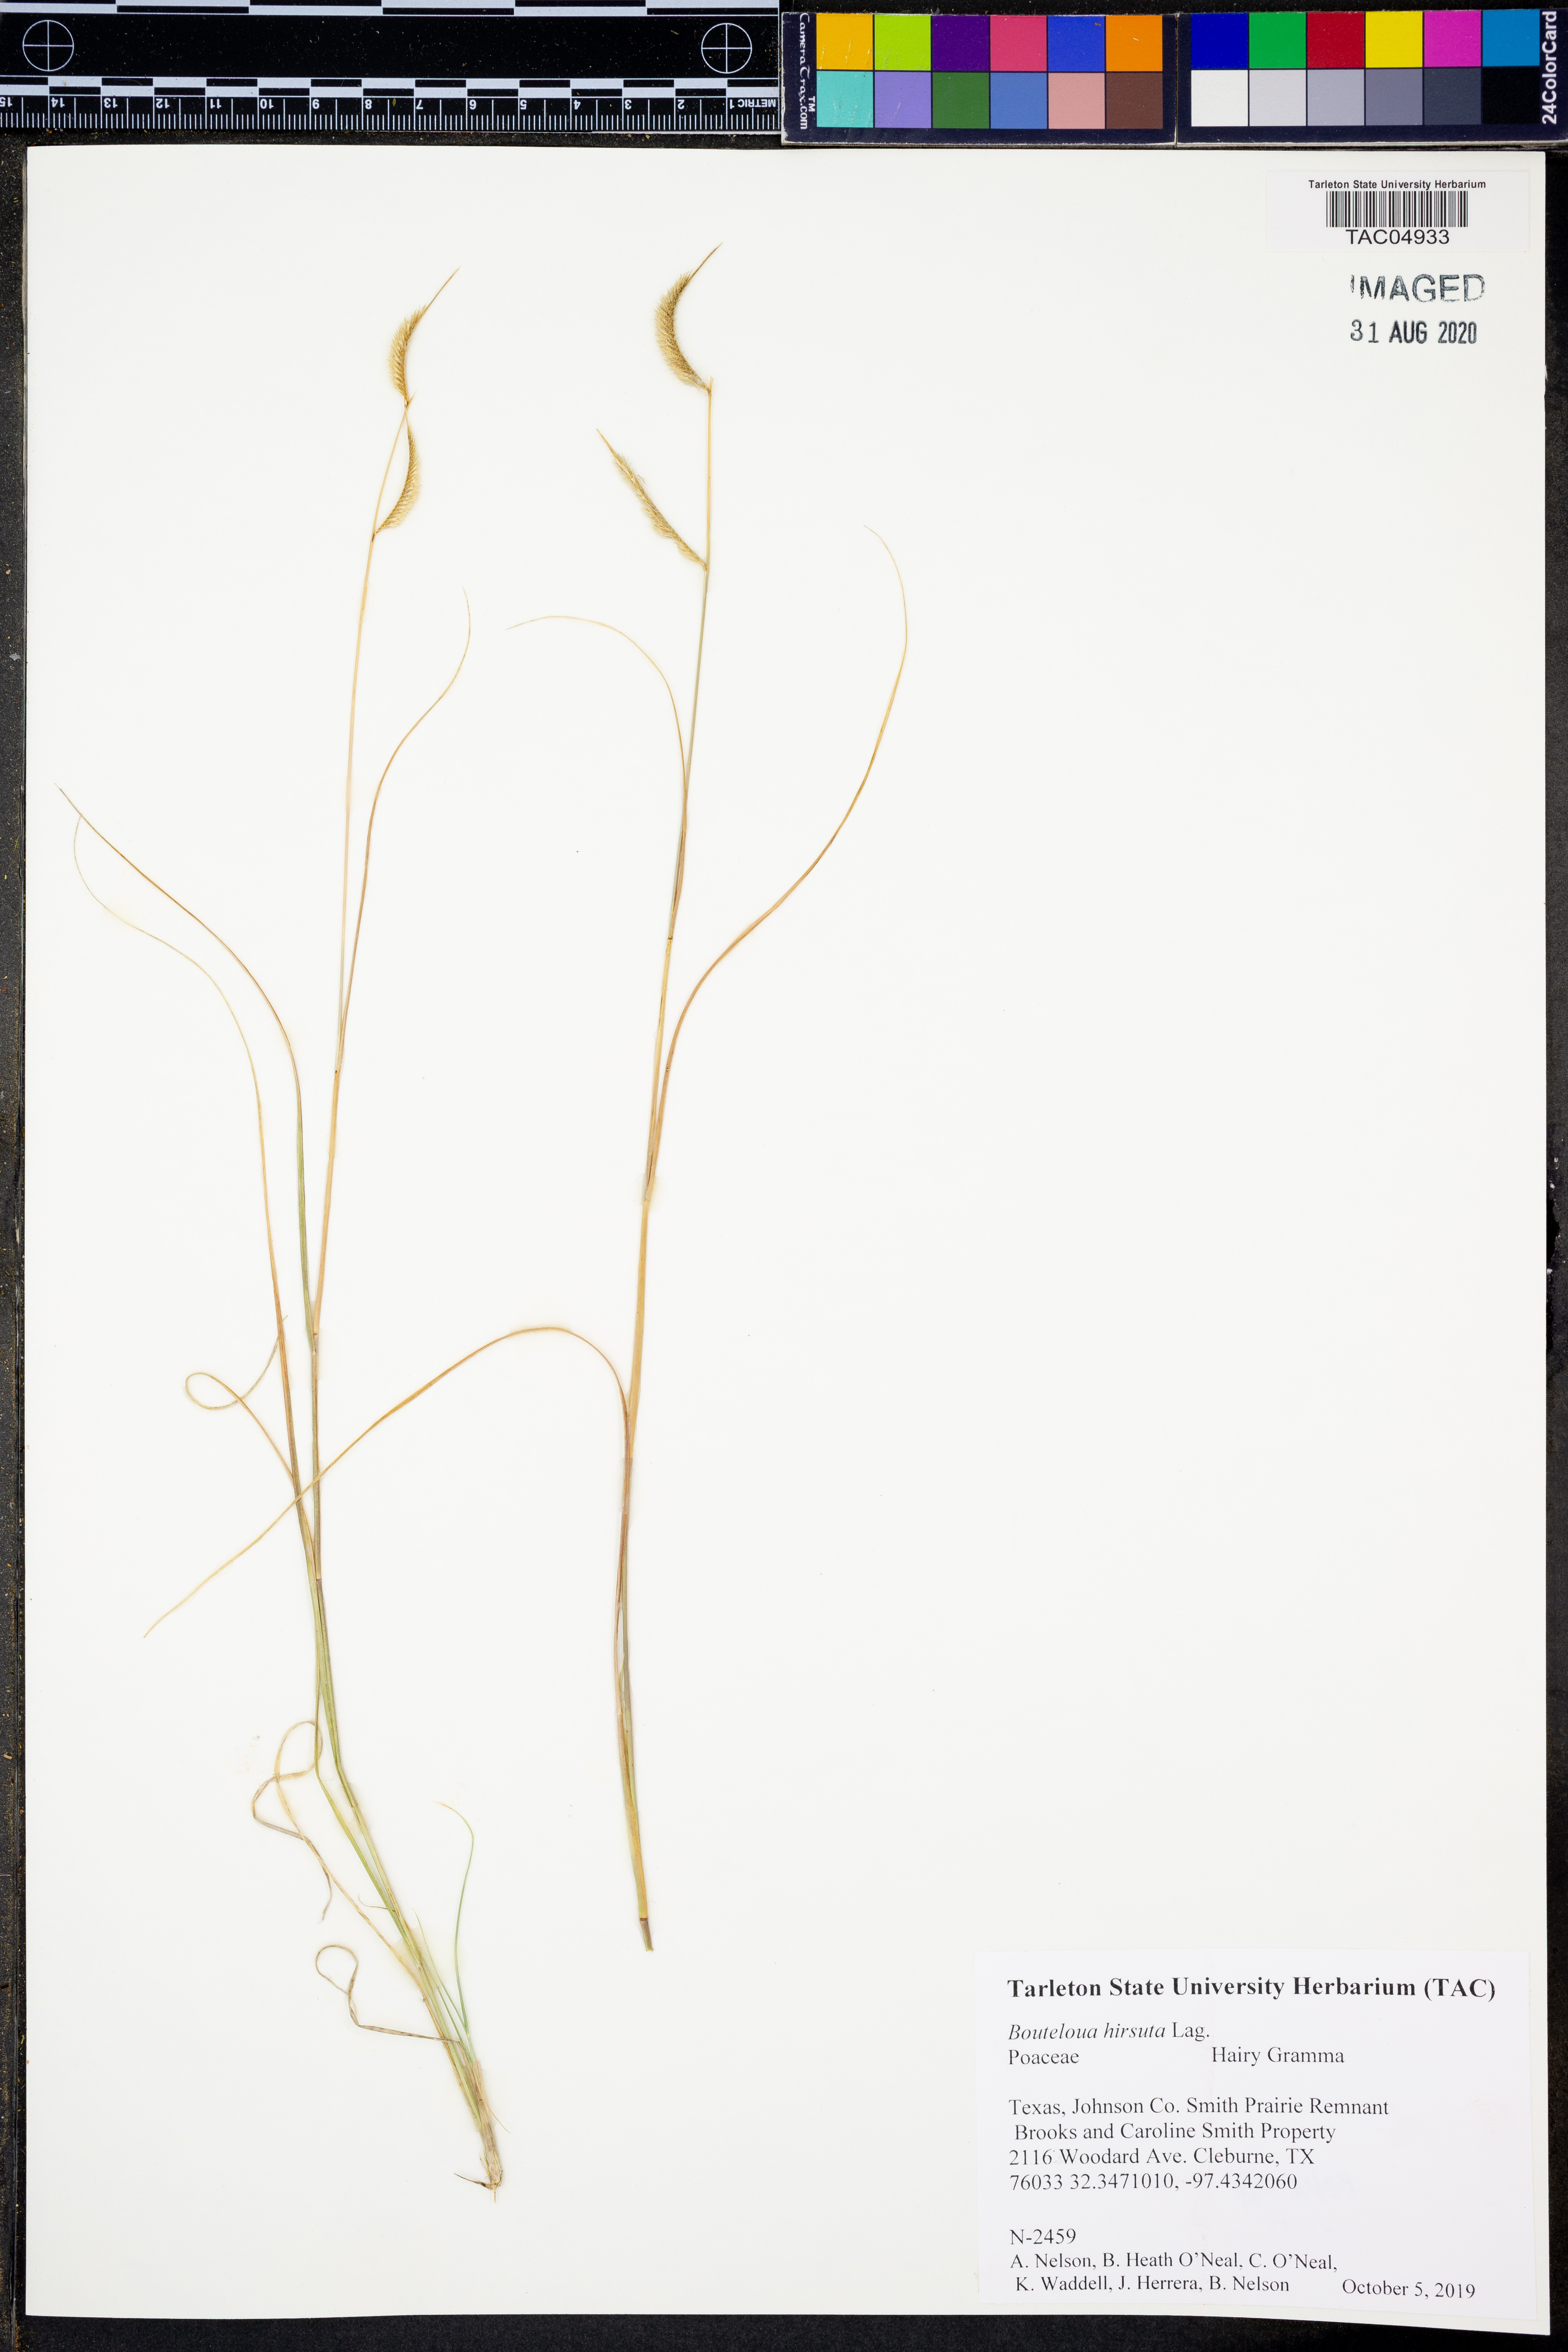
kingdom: Plantae
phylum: Tracheophyta
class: Liliopsida
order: Poales
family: Poaceae
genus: Bouteloua
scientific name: Bouteloua hirsuta
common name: Hairy grama
